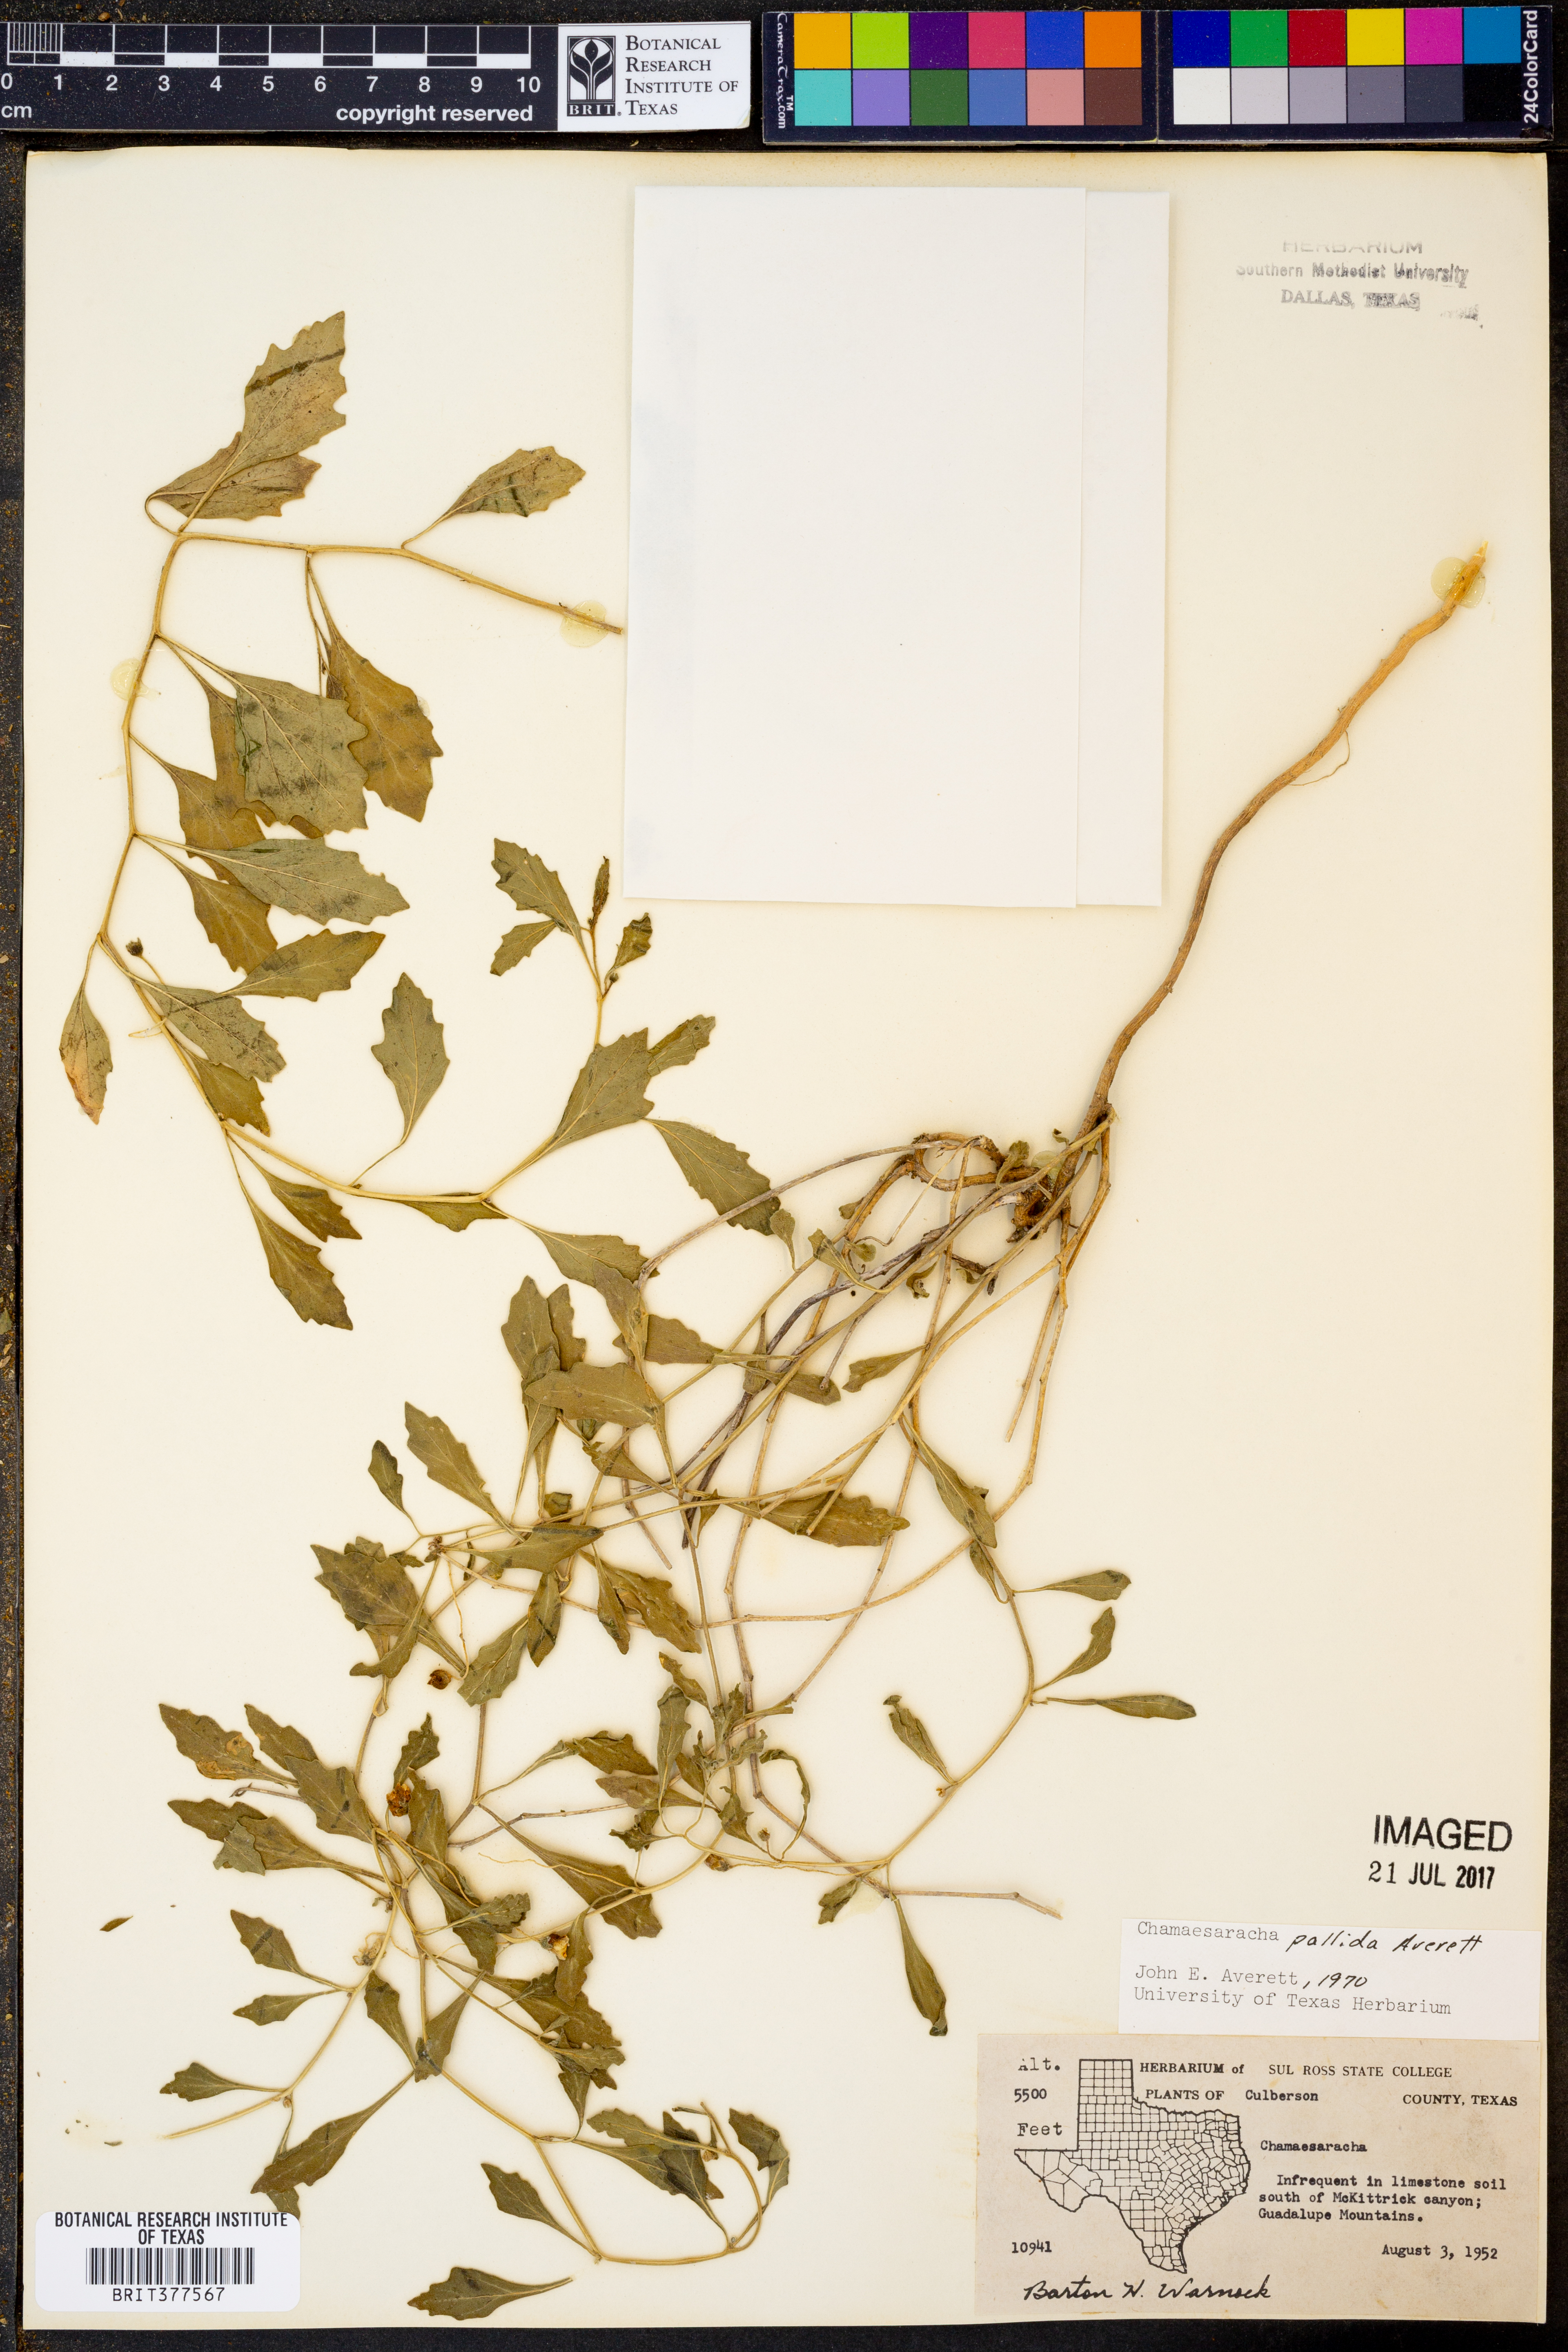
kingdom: Plantae
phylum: Tracheophyta
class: Magnoliopsida
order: Solanales
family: Solanaceae
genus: Chamaesaracha
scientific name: Chamaesaracha pallida
